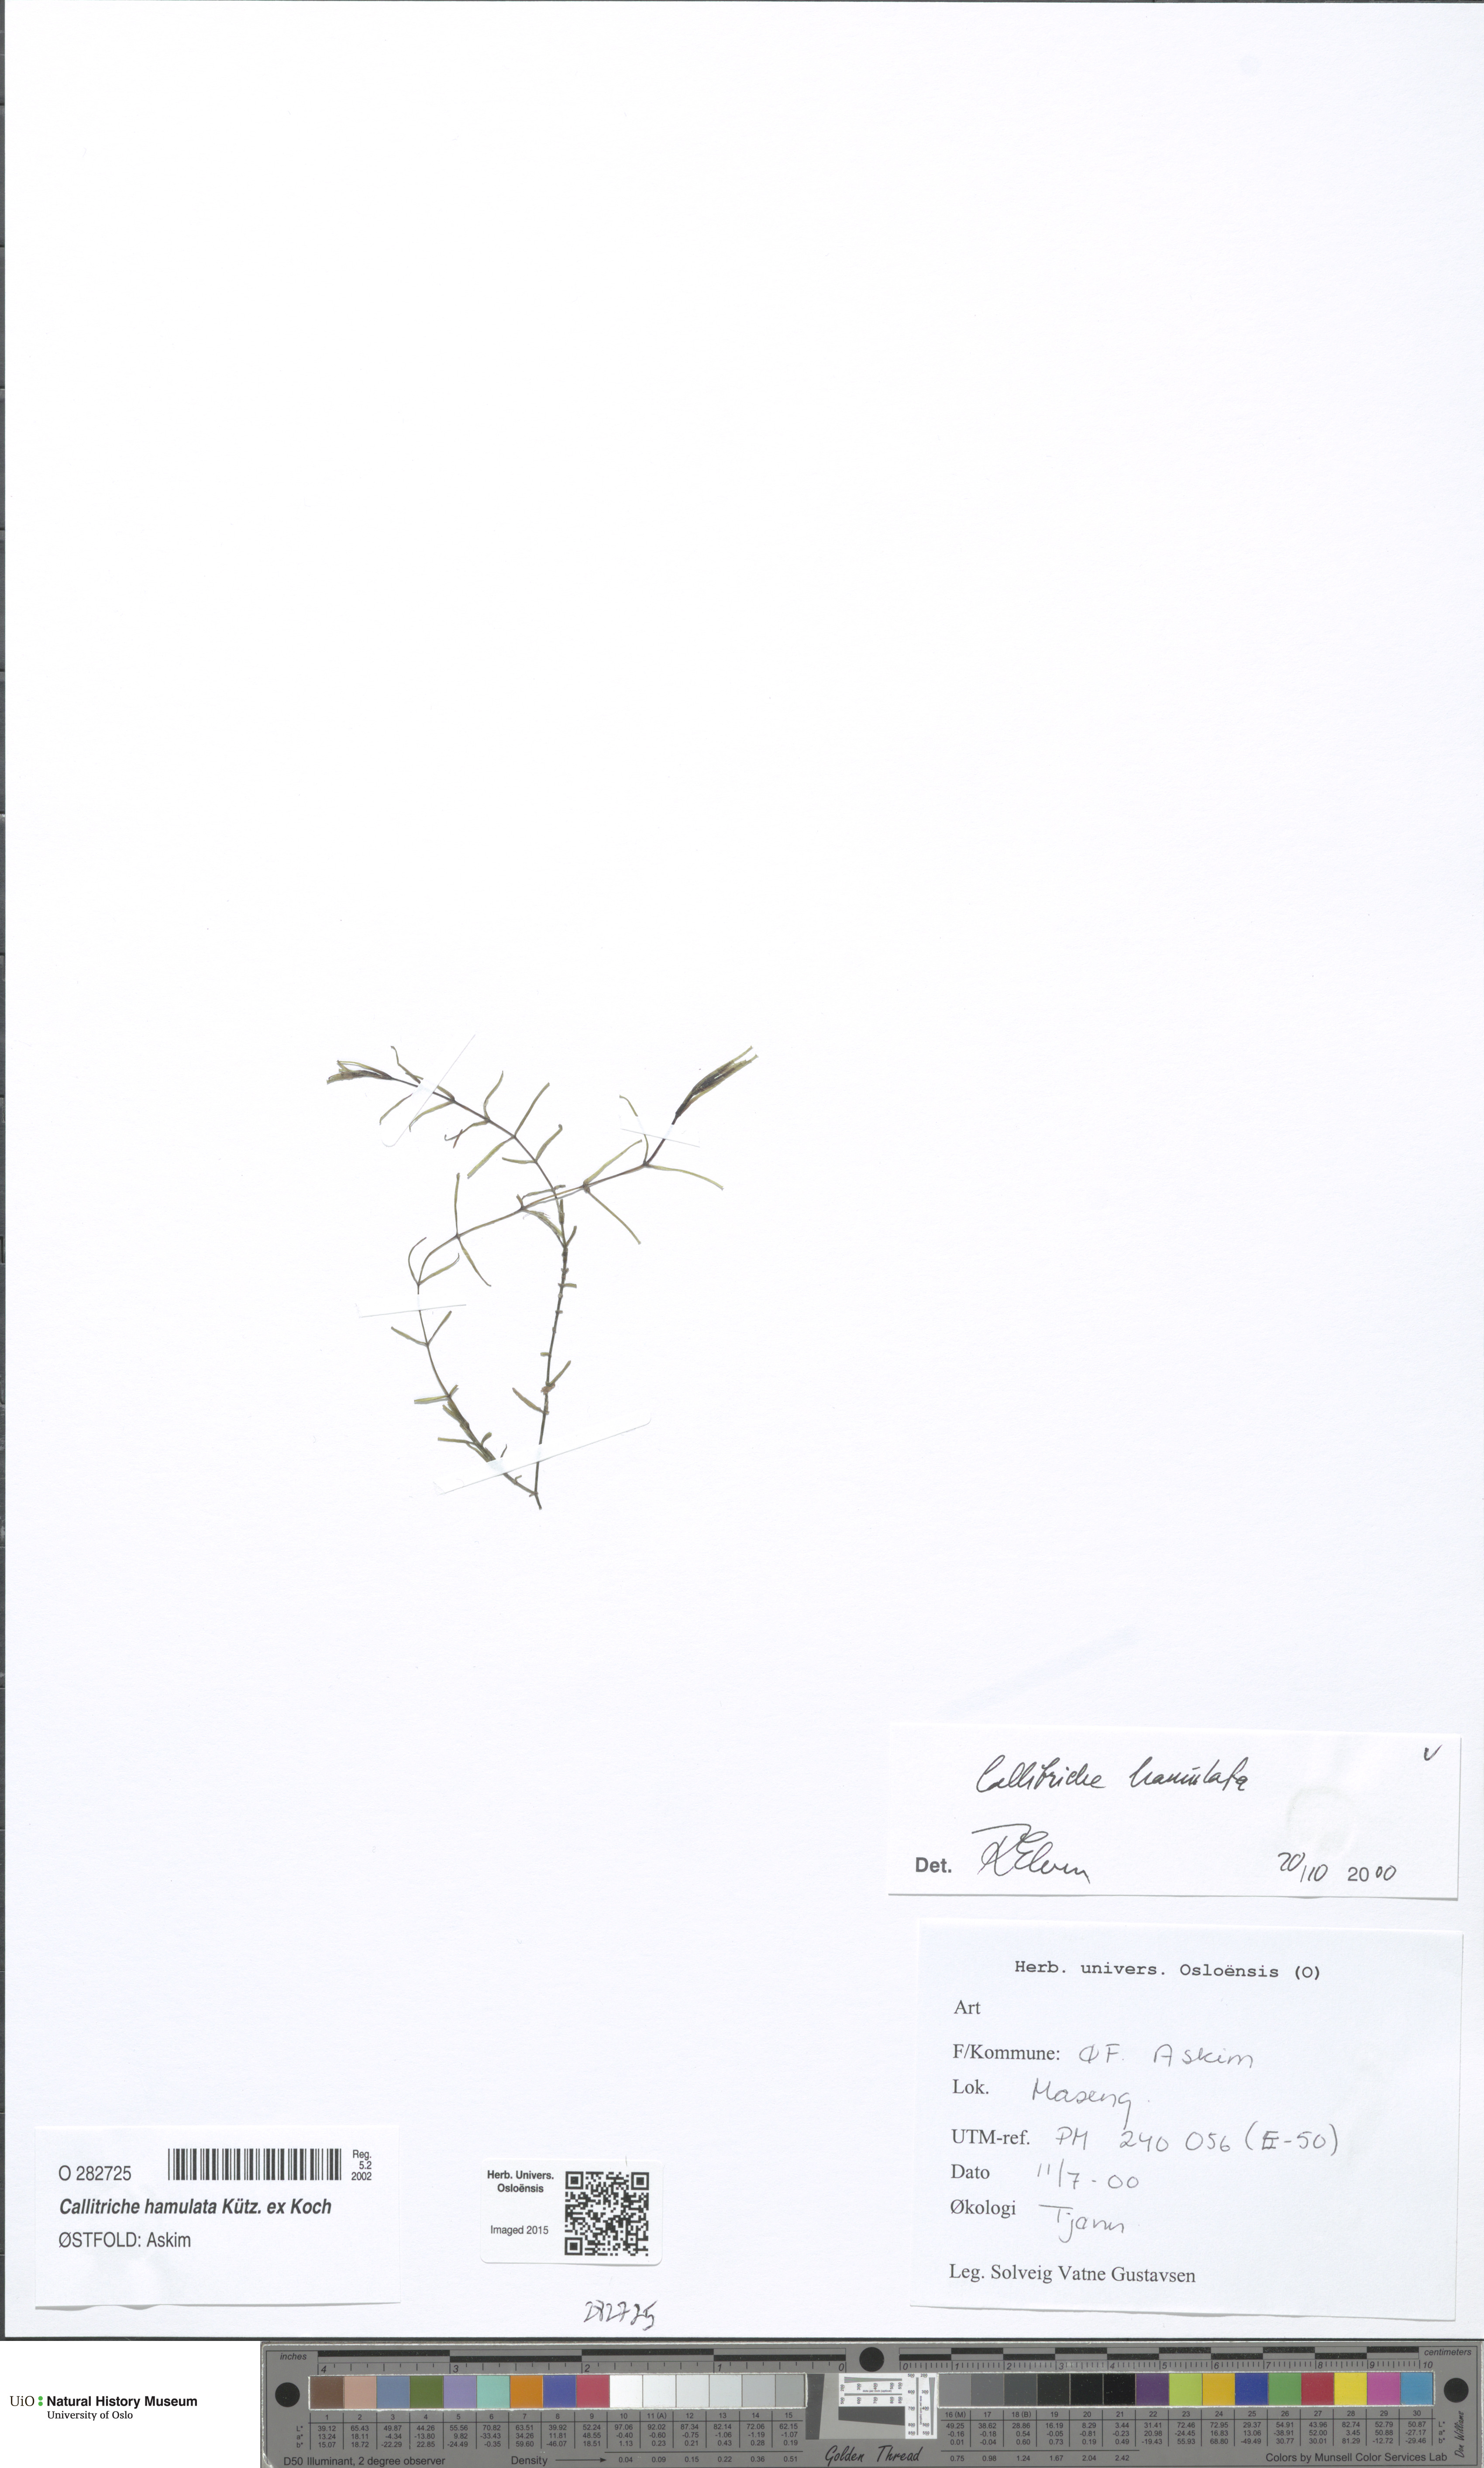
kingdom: Plantae
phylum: Tracheophyta
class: Magnoliopsida
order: Lamiales
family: Plantaginaceae
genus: Callitriche
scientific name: Callitriche hamulata
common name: Intermediate water-starwort
